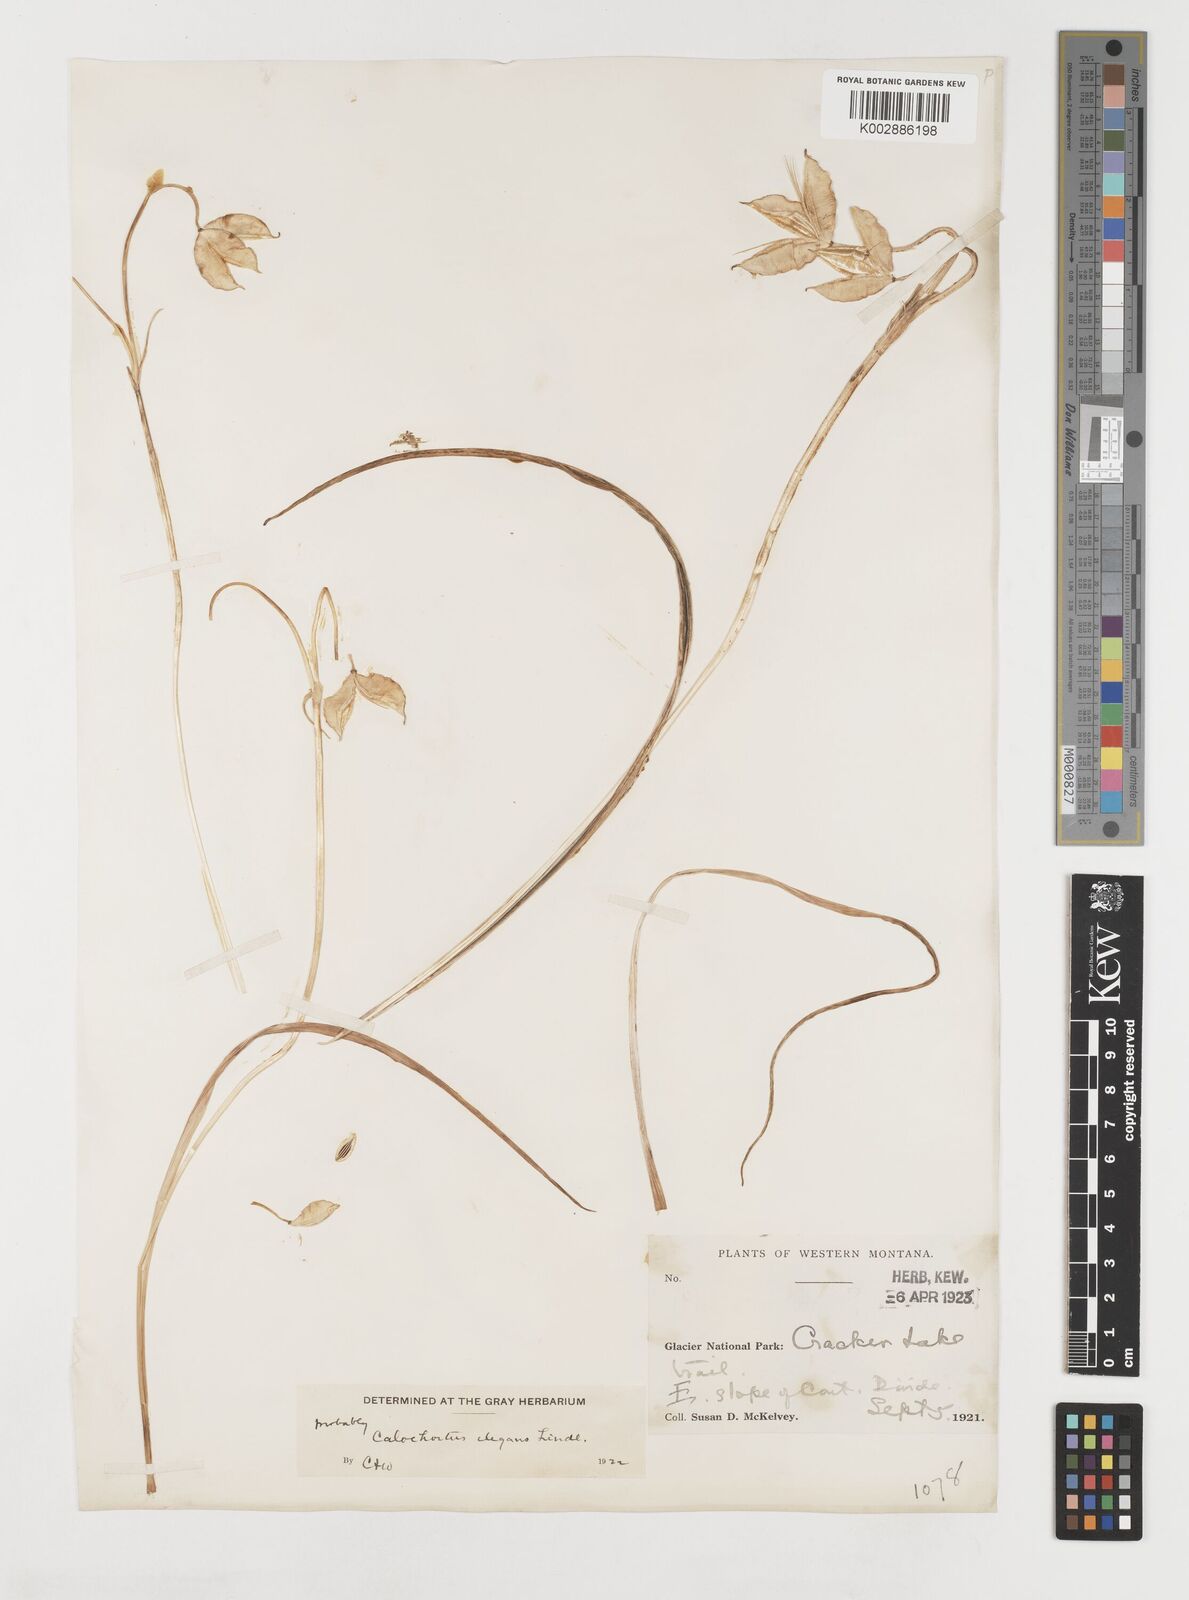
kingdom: Plantae
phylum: Tracheophyta
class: Liliopsida
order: Liliales
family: Liliaceae
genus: Calochortus
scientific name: Calochortus elegans
